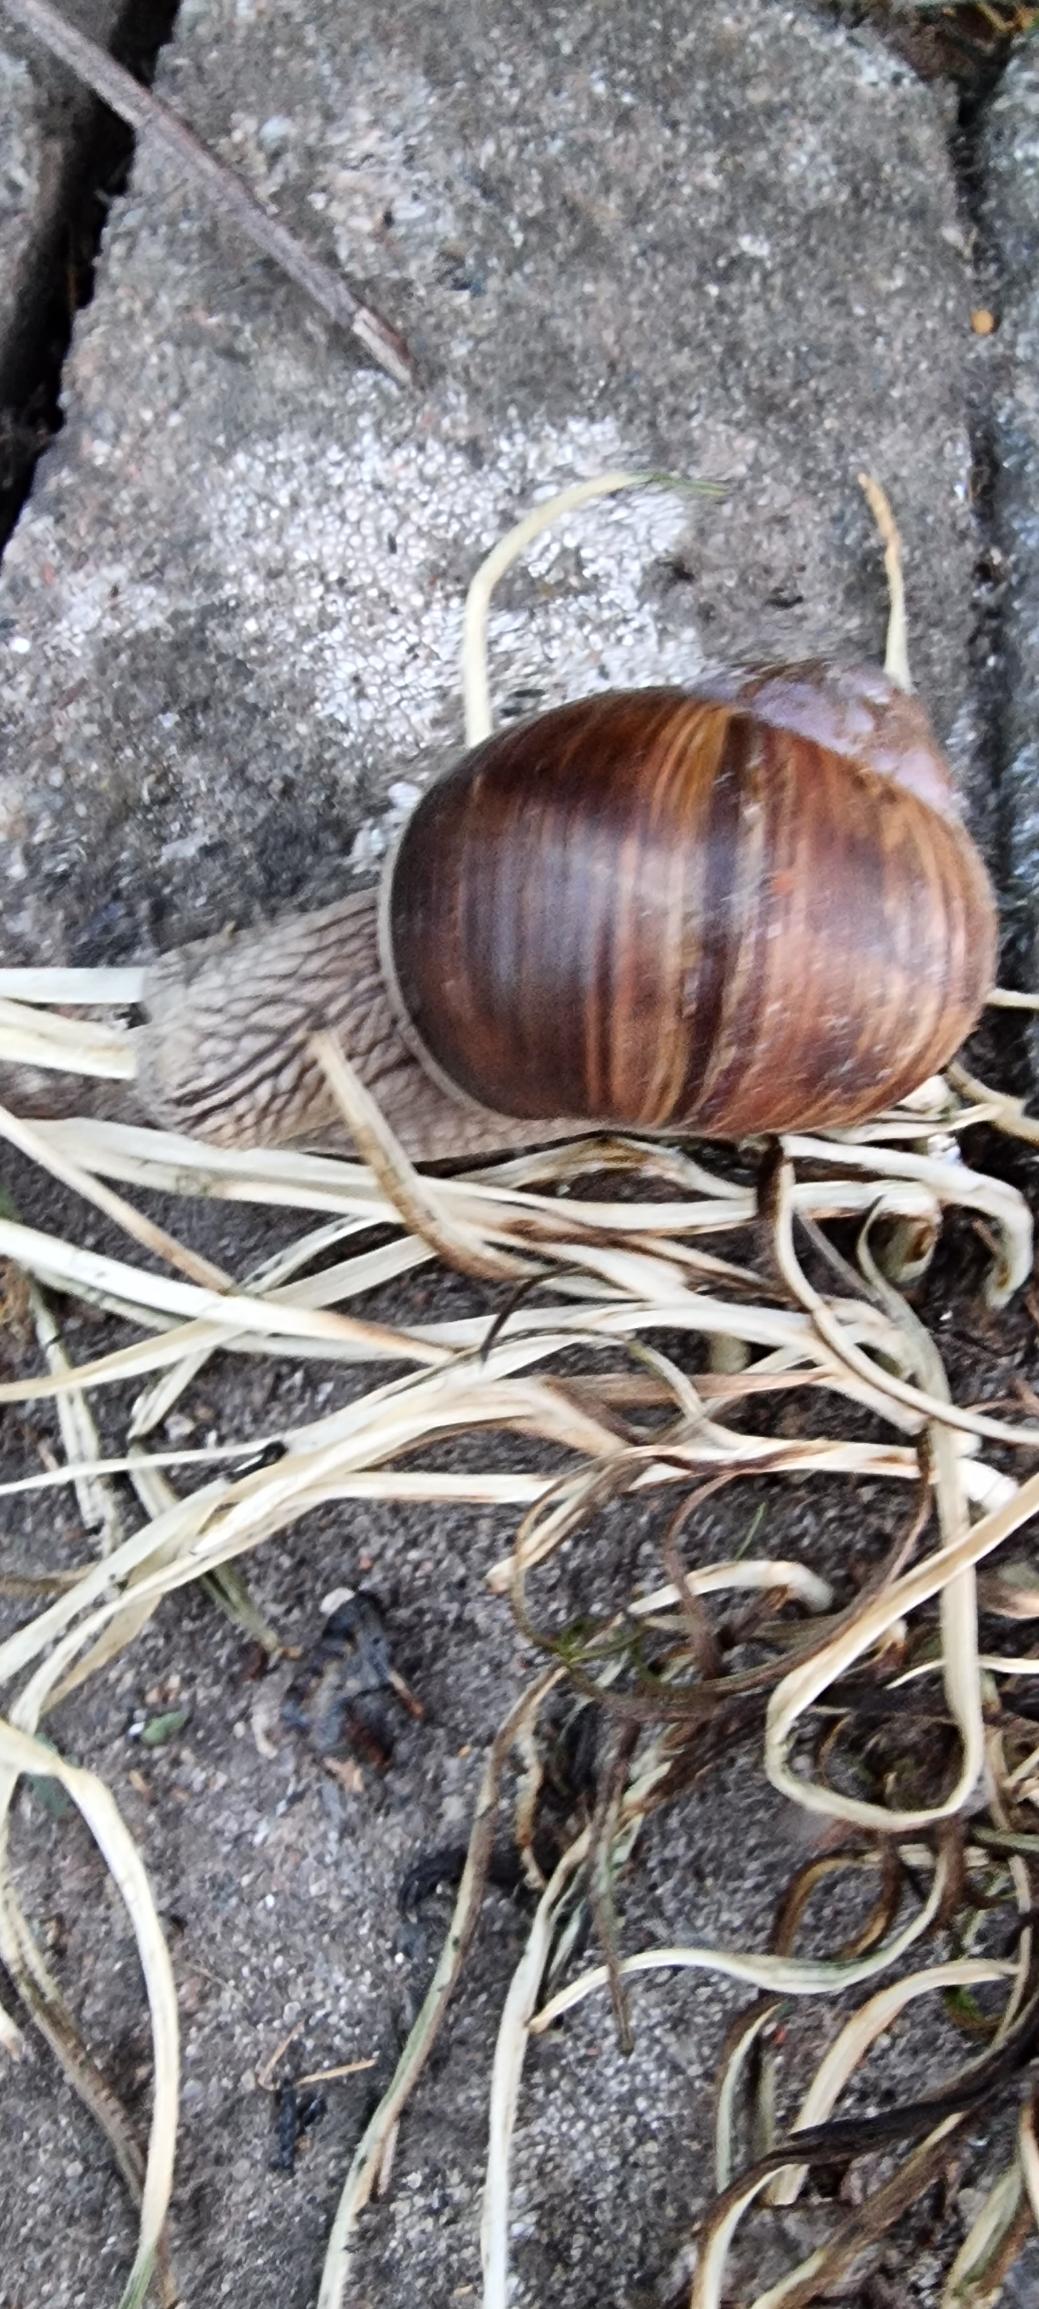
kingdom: Animalia
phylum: Mollusca
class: Gastropoda
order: Stylommatophora
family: Helicidae
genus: Helix
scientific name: Helix pomatia
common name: Vinbjergsnegl
